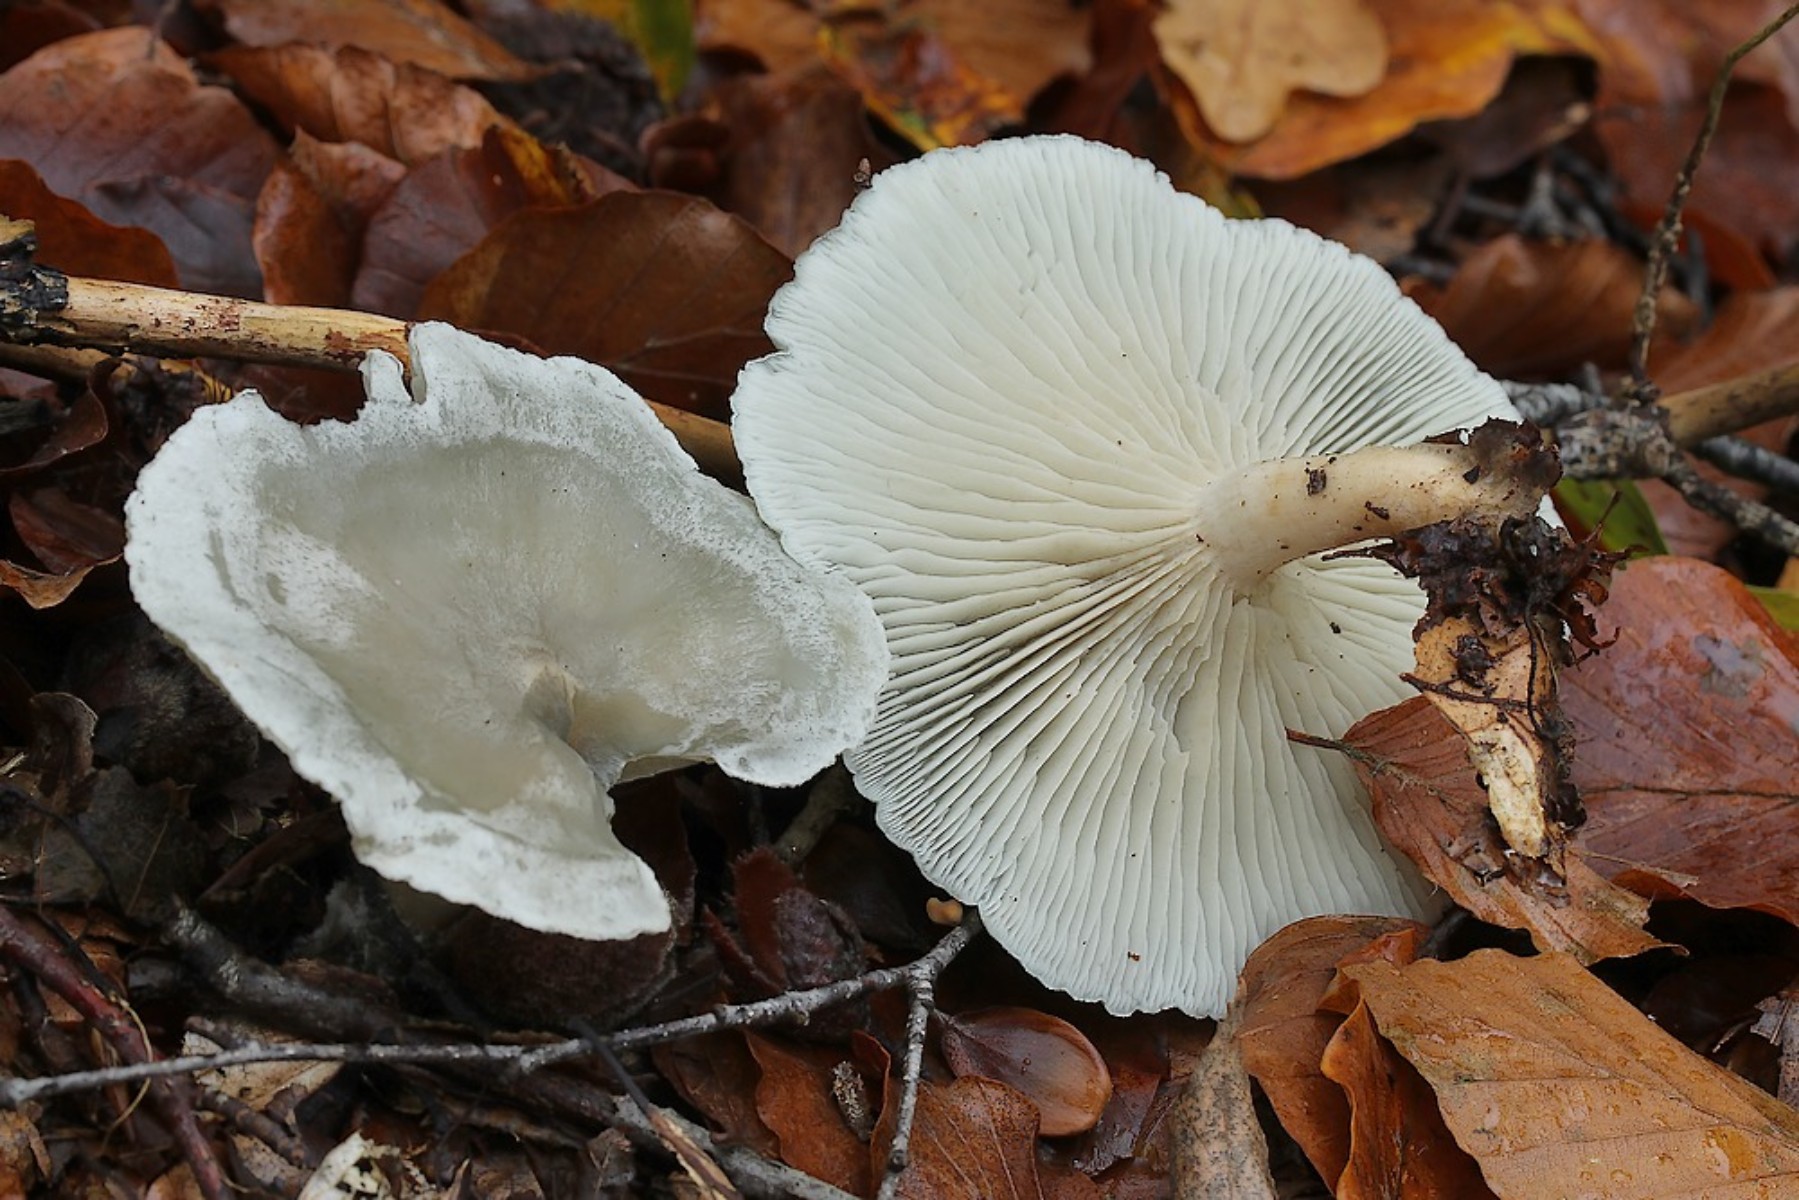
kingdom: Fungi
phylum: Basidiomycota
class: Agaricomycetes
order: Agaricales
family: Tricholomataceae
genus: Clitocybe
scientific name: Clitocybe odora
